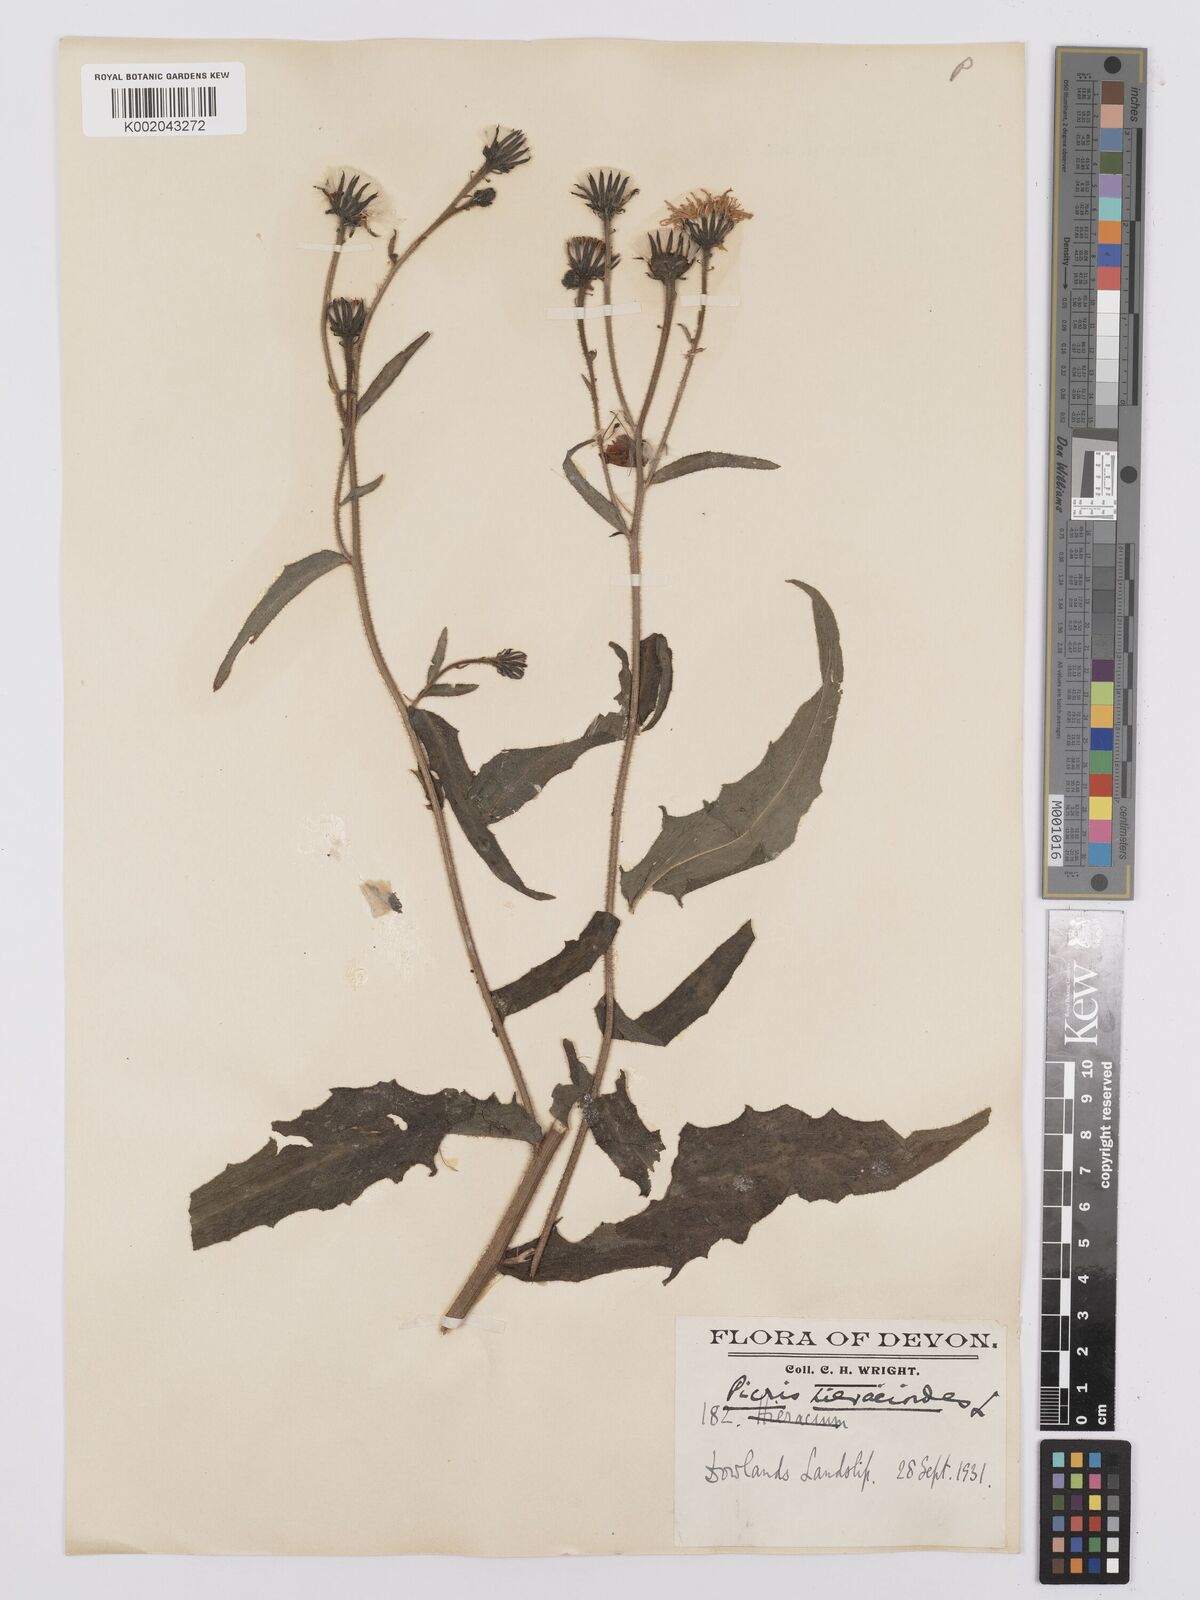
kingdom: Plantae
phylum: Tracheophyta
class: Magnoliopsida
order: Asterales
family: Asteraceae
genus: Picris
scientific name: Picris hieracioides
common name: Hawkweed oxtongue
